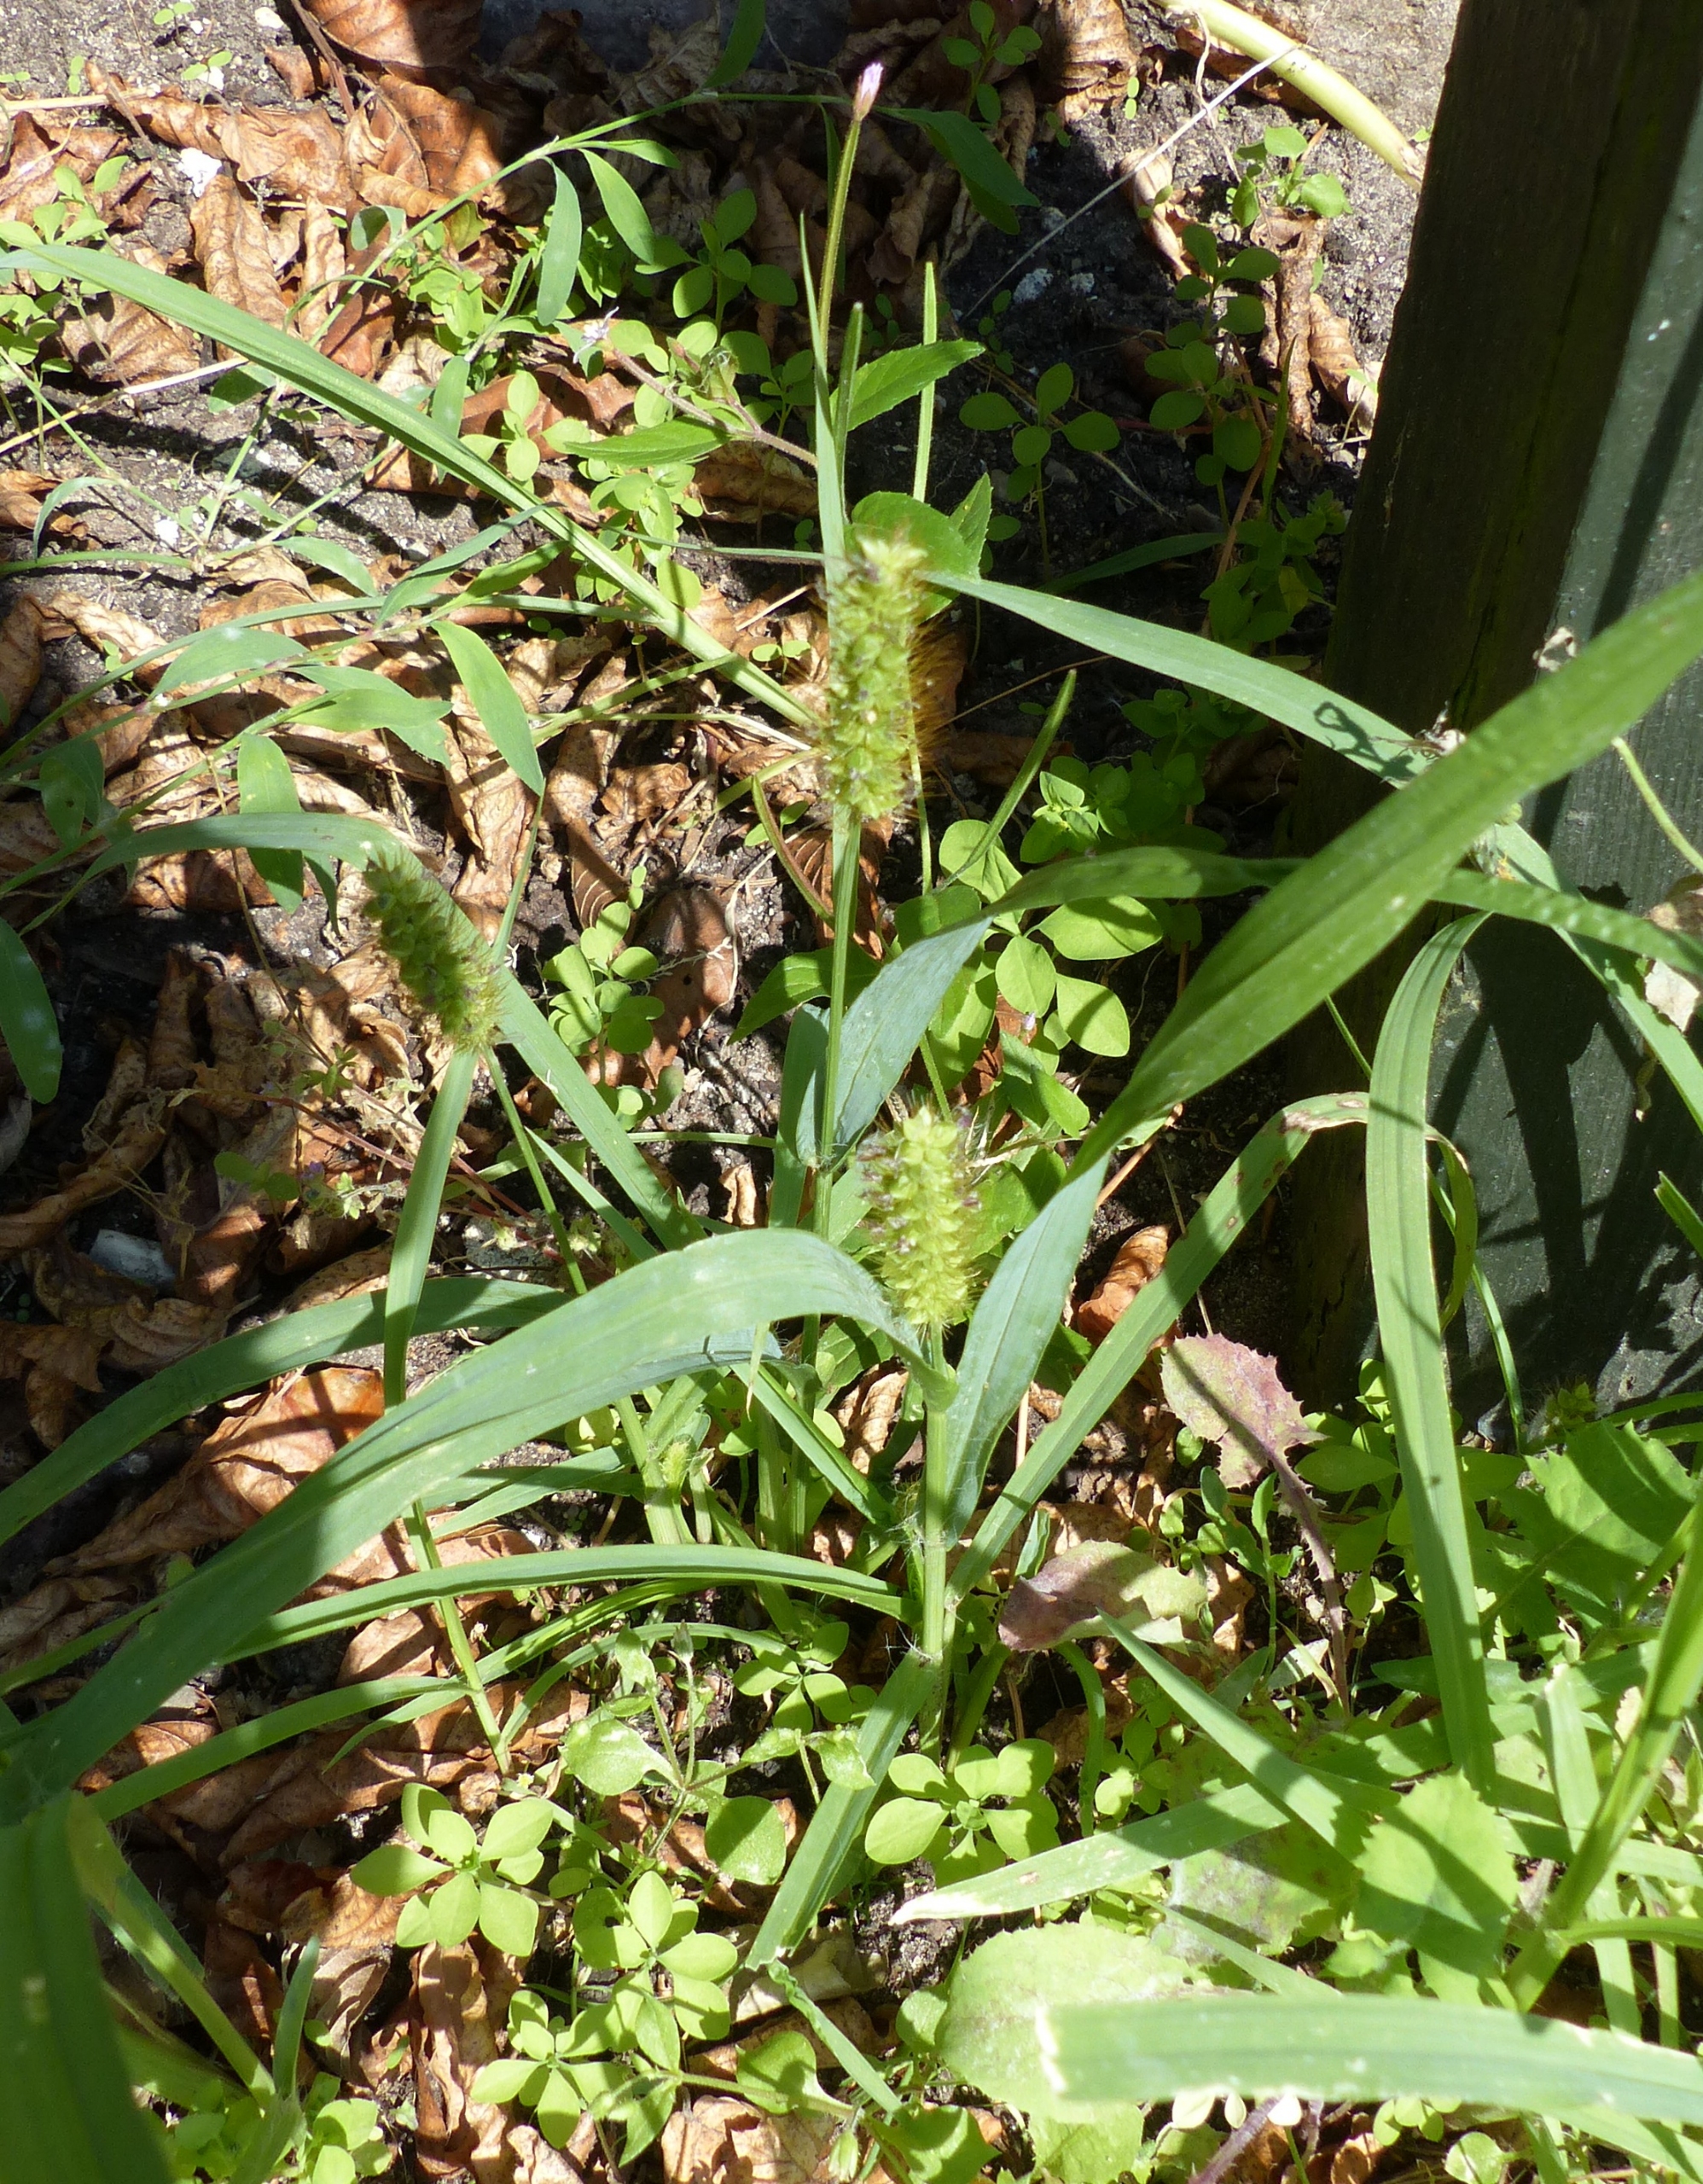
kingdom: Plantae
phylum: Tracheophyta
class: Liliopsida
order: Poales
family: Poaceae
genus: Setaria
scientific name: Setaria pumila
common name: Blågrøn skærmaks
